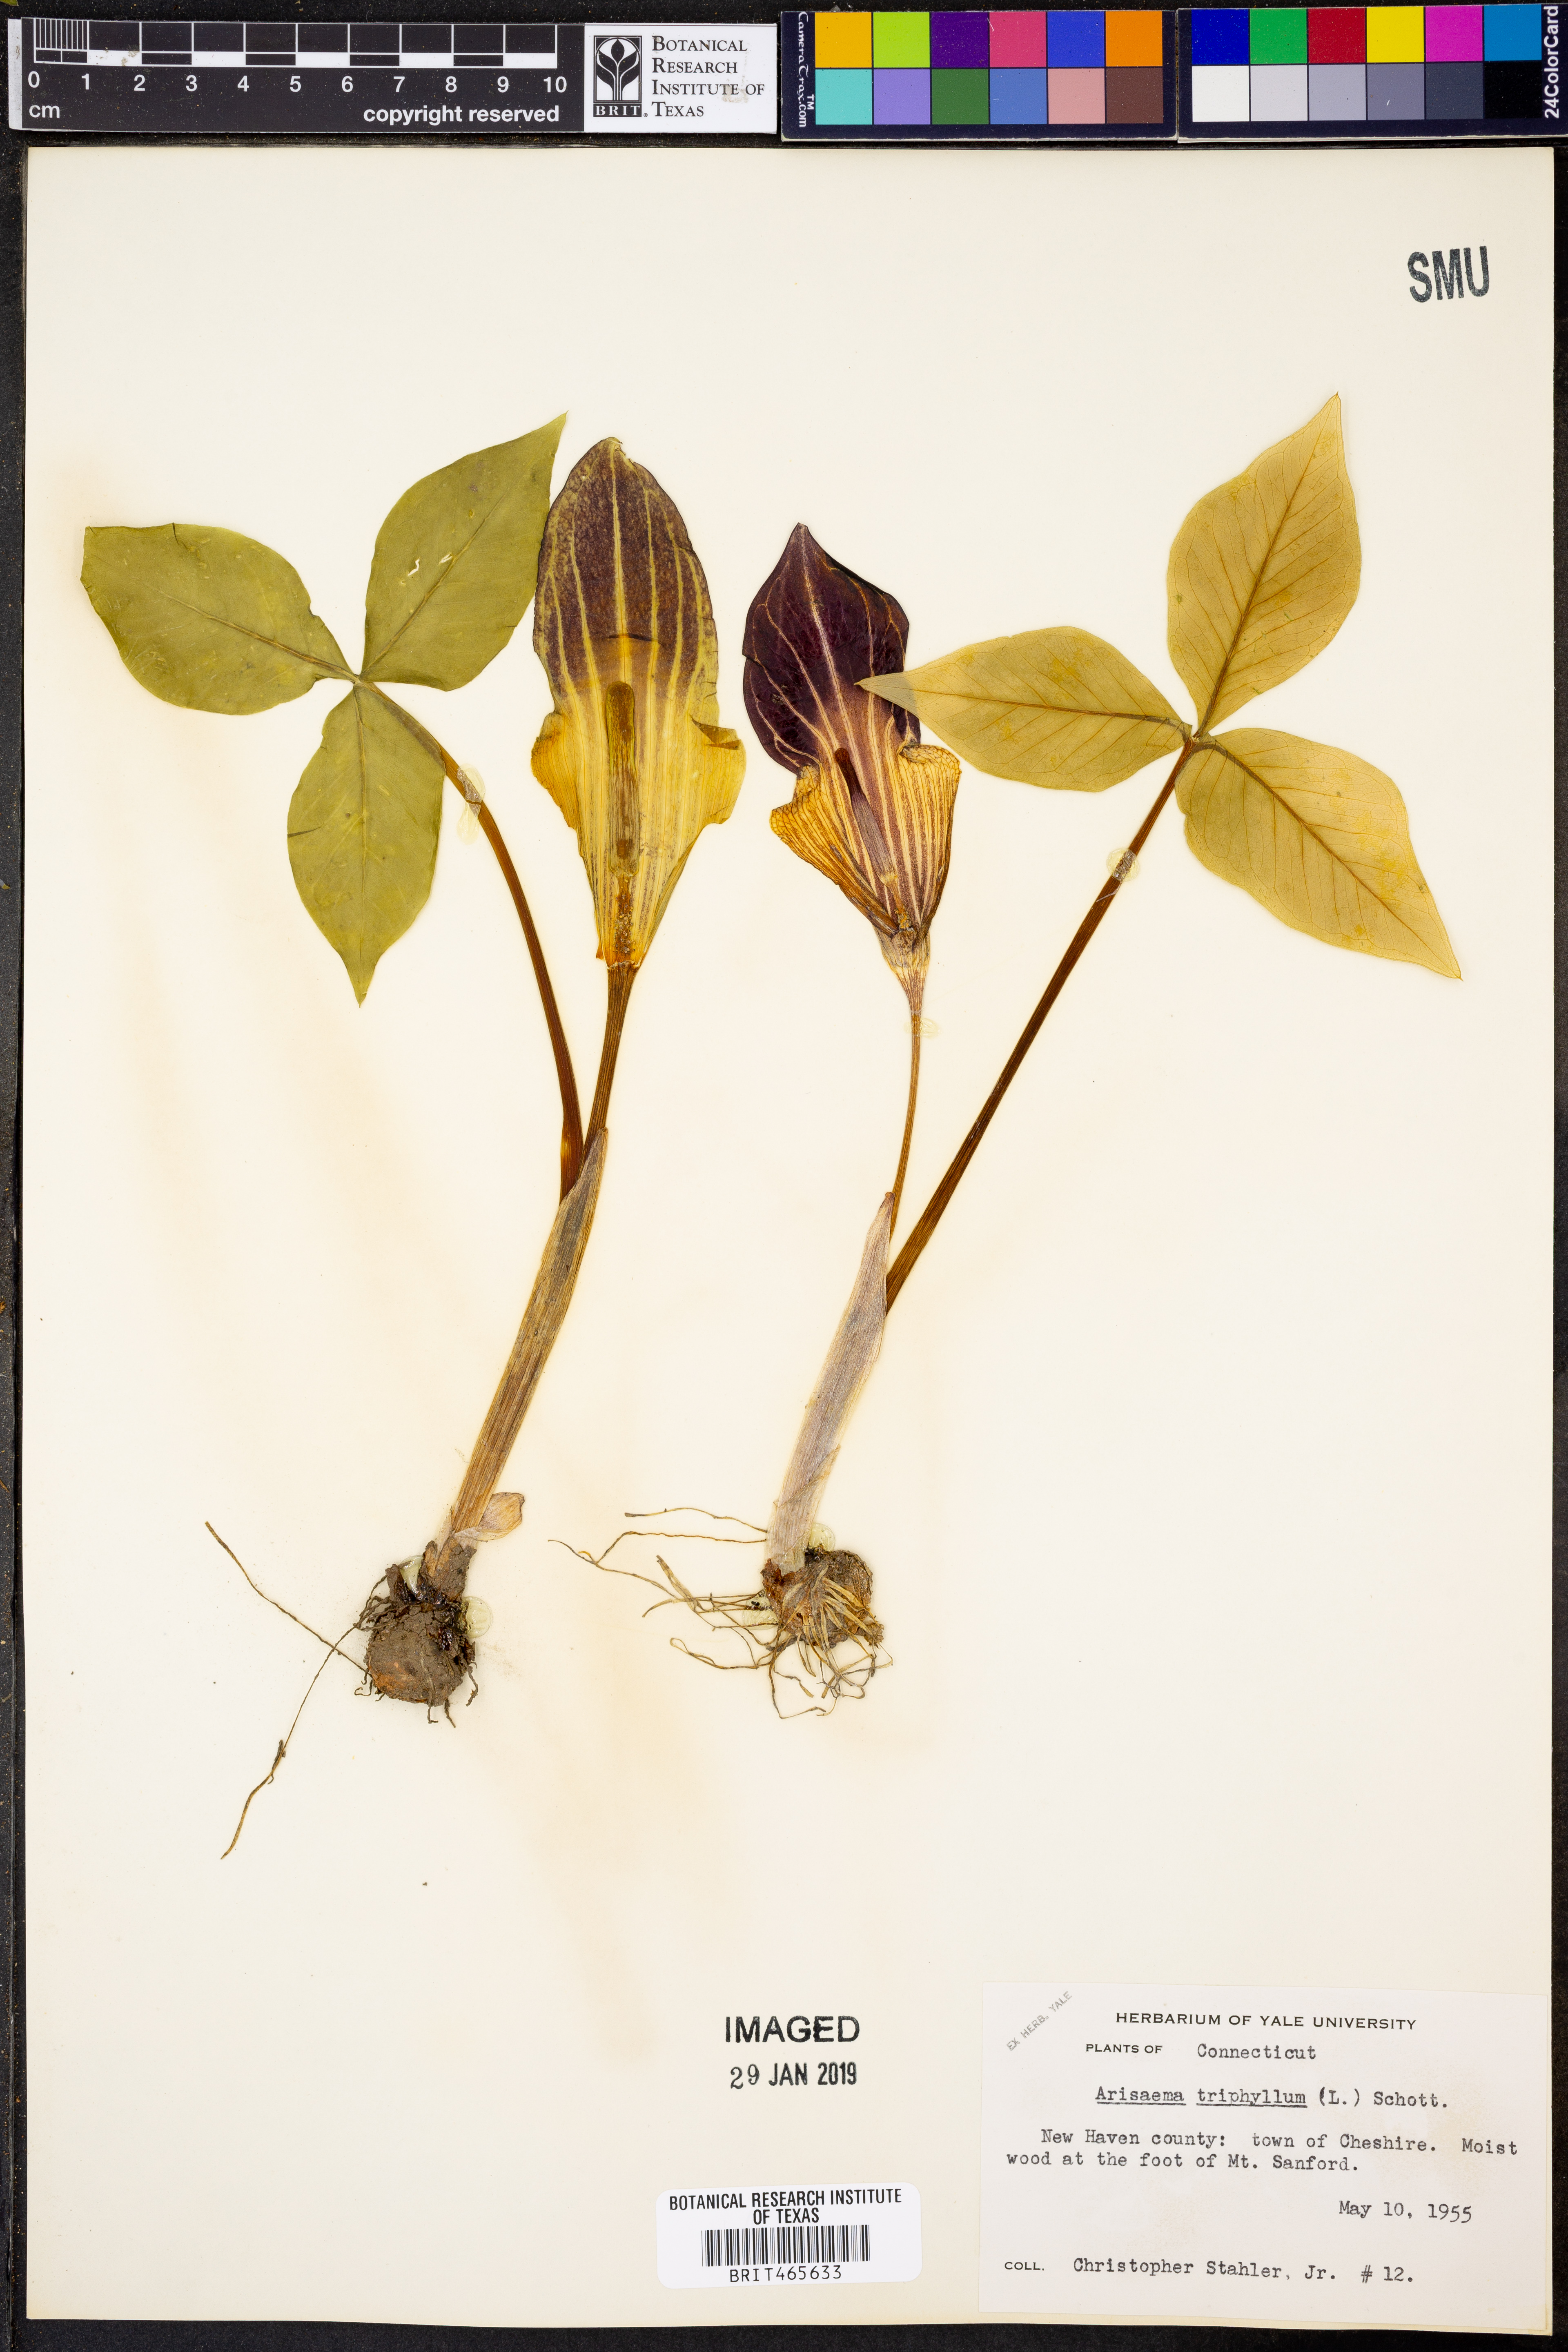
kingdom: Plantae
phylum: Tracheophyta
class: Liliopsida
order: Alismatales
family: Araceae
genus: Arisaema
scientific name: Arisaema triphyllum
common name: Jack-in-the-pulpit
